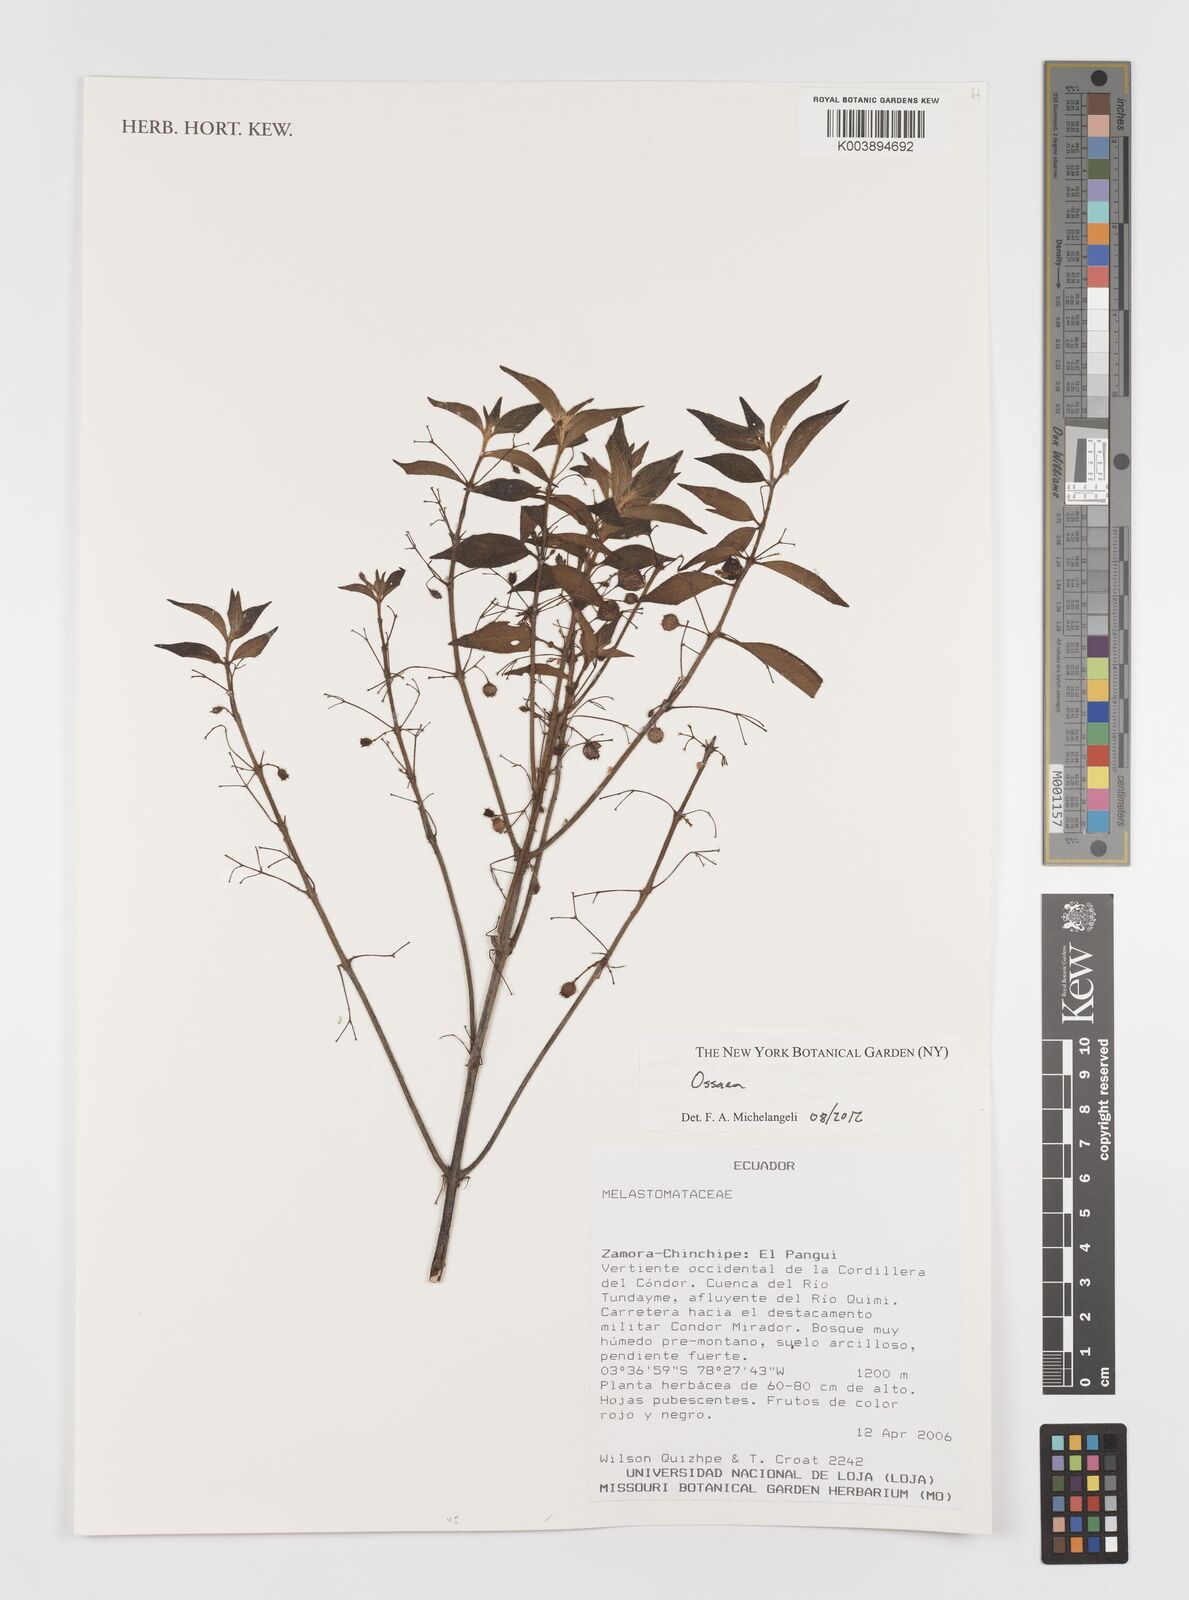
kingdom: Plantae
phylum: Tracheophyta
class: Magnoliopsida
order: Myrtales
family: Melastomataceae
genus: Ossaea
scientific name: Ossaea
